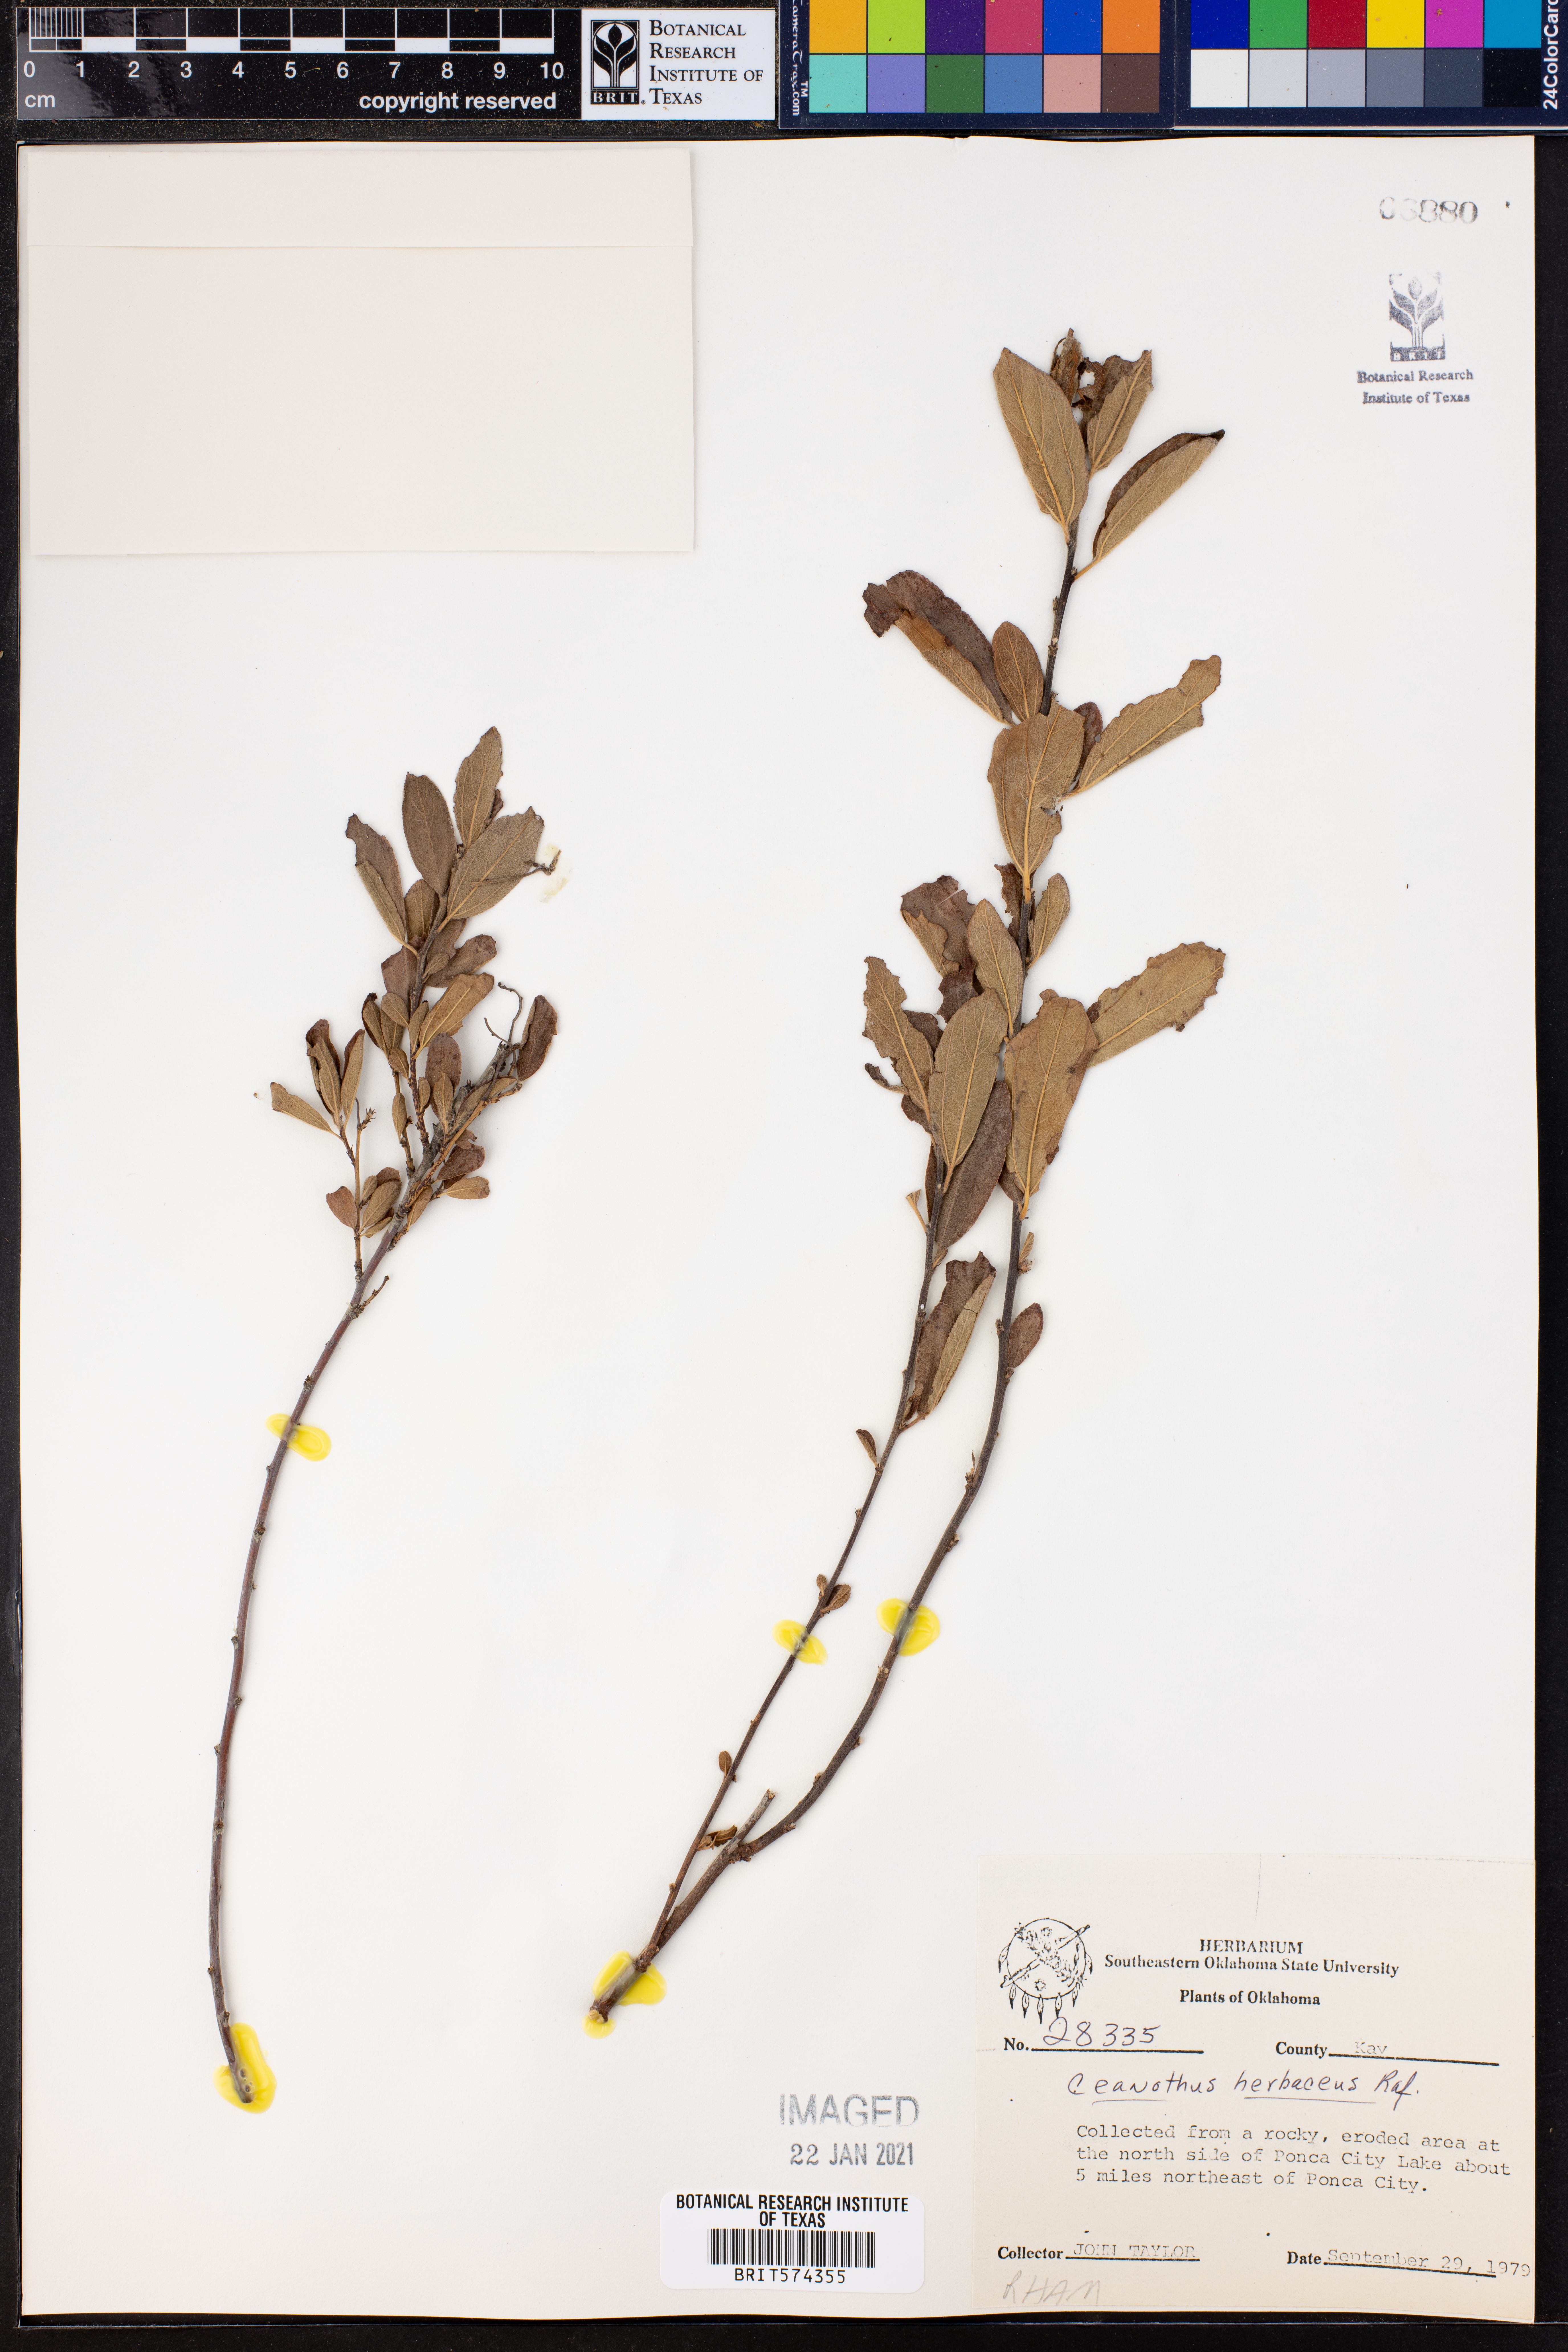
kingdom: Plantae
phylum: Tracheophyta
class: Magnoliopsida
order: Rosales
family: Rhamnaceae
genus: Ceanothus
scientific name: Ceanothus herbaceus
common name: Inland ceanothus
